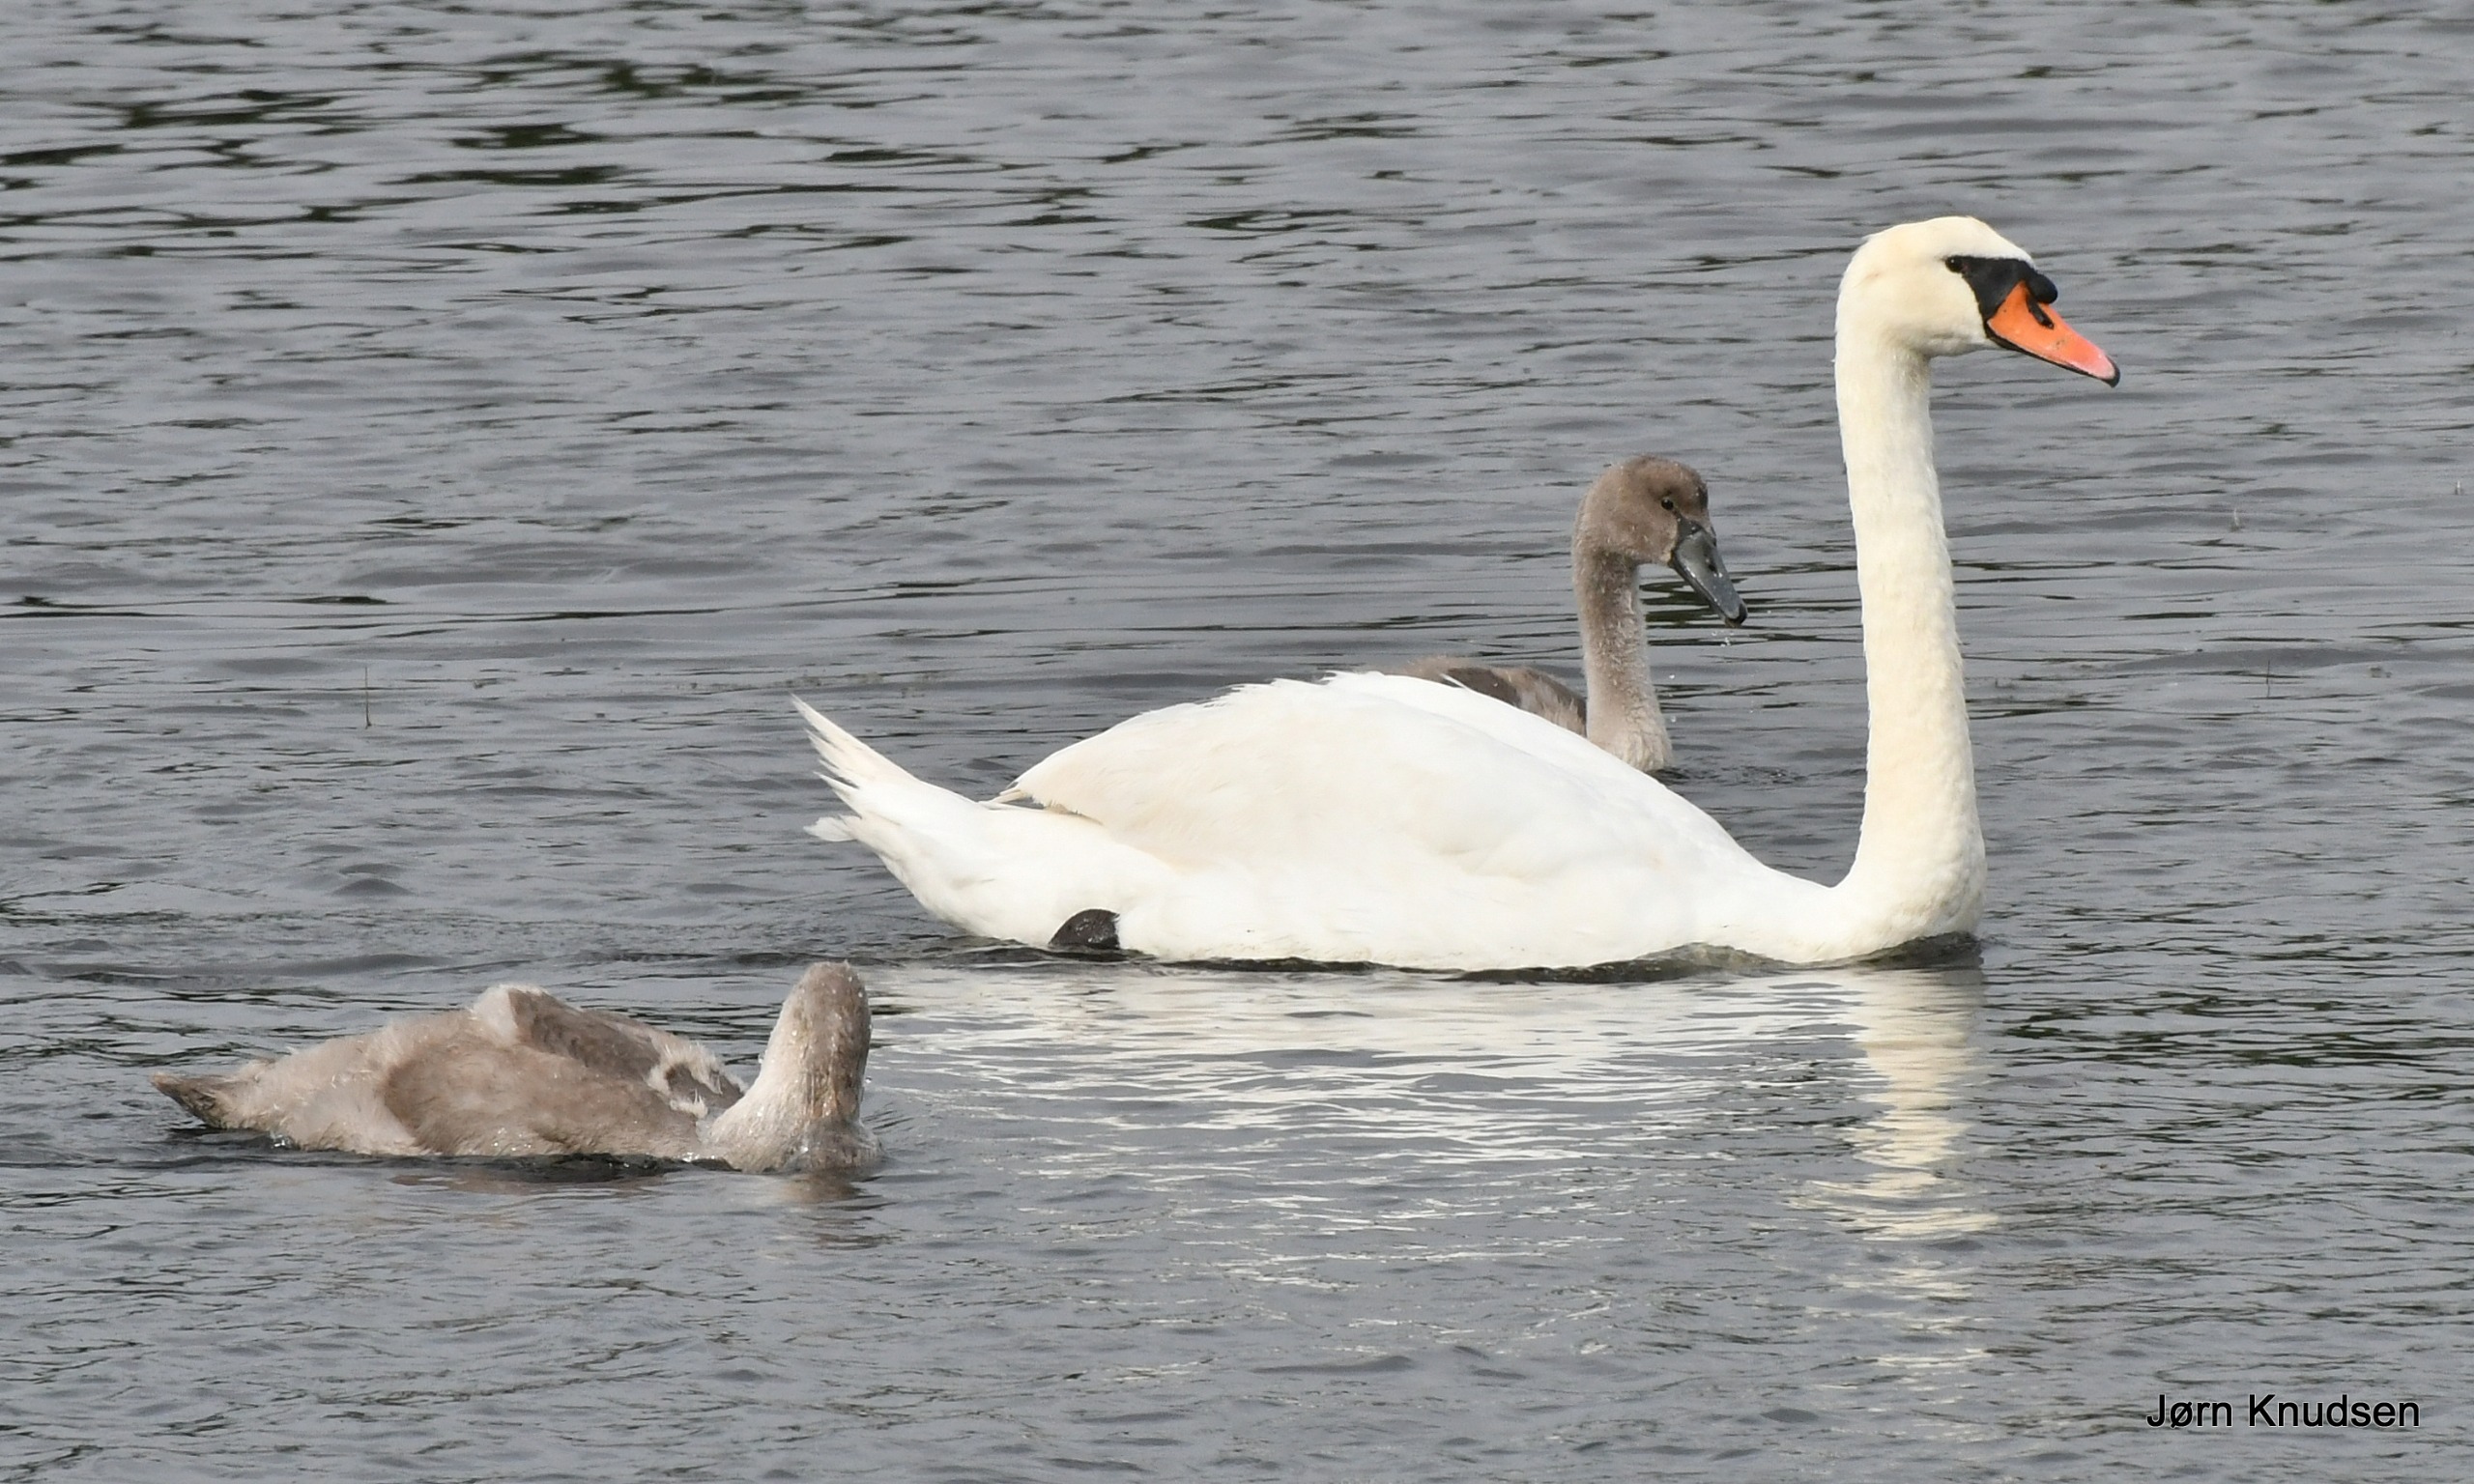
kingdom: Animalia
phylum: Chordata
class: Aves
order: Anseriformes
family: Anatidae
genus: Cygnus
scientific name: Cygnus olor
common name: Knopsvane
